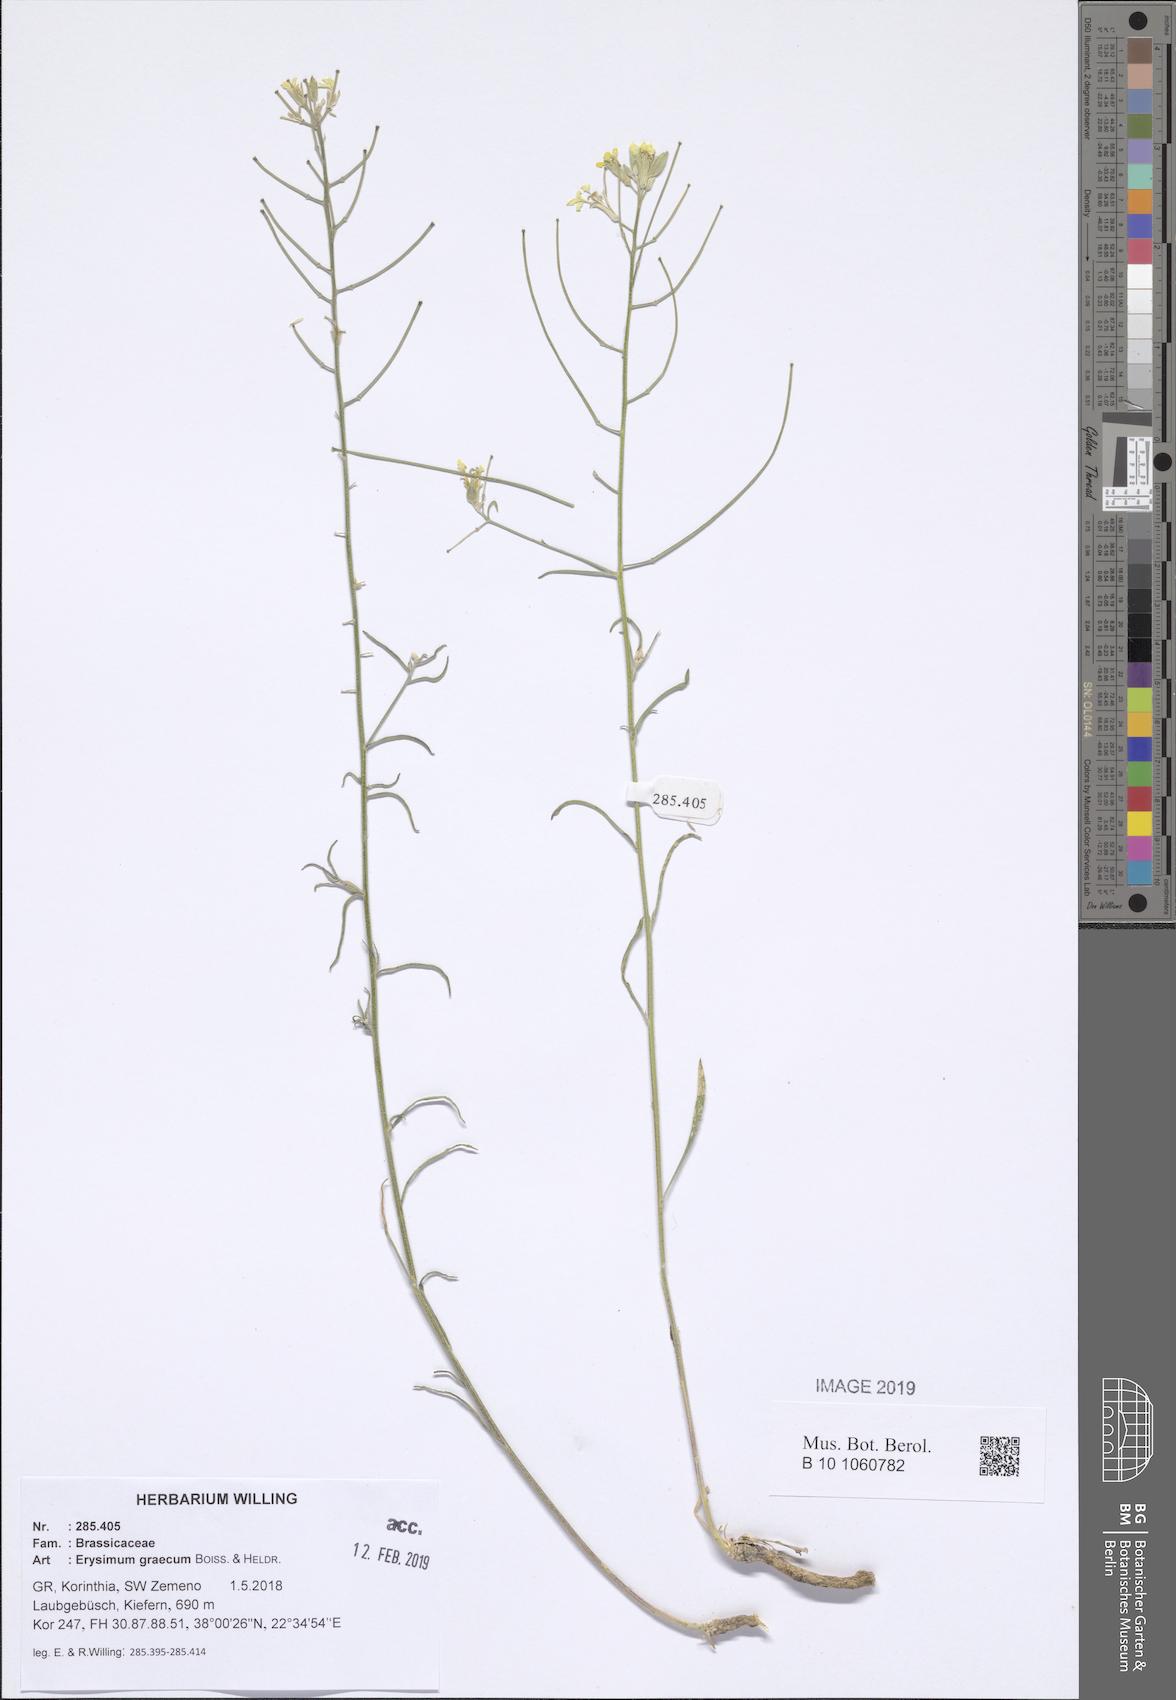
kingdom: Plantae
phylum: Tracheophyta
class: Magnoliopsida
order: Brassicales
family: Brassicaceae
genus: Erysimum
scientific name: Erysimum graecum
